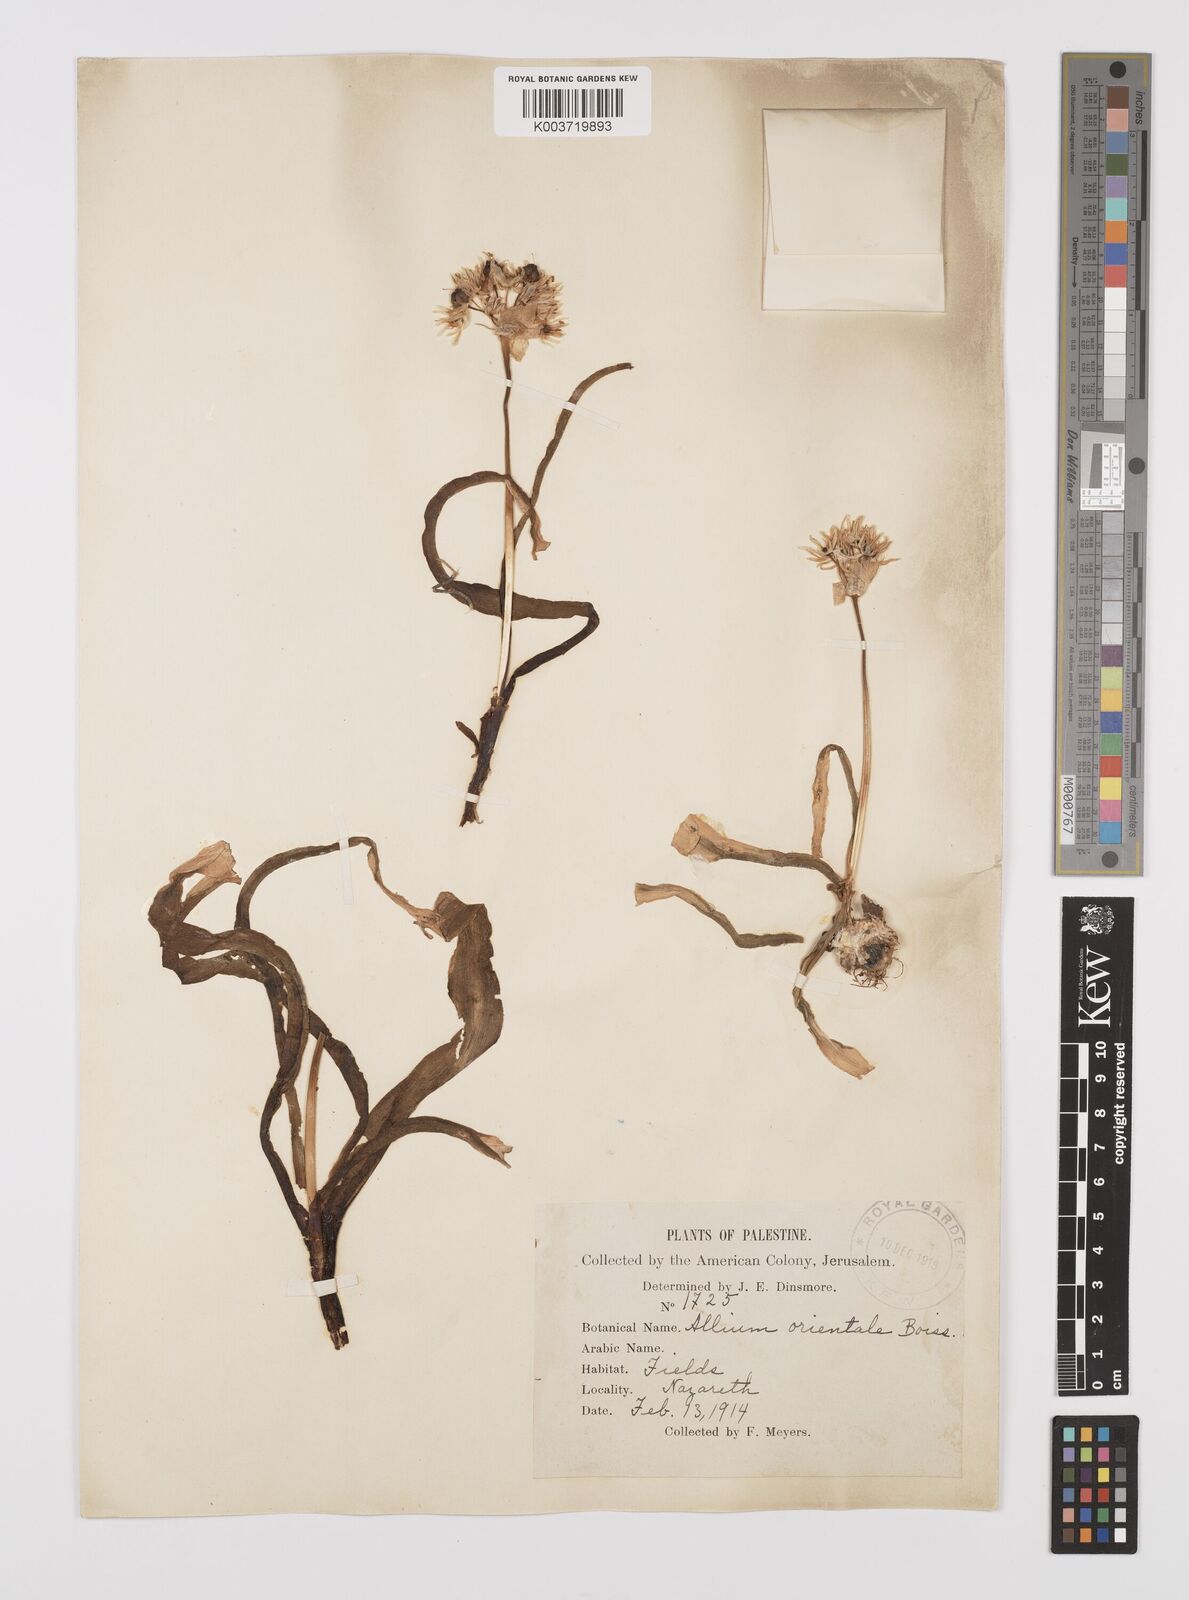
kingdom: Plantae
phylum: Tracheophyta
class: Liliopsida
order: Asparagales
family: Amaryllidaceae
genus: Allium
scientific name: Allium orientale
